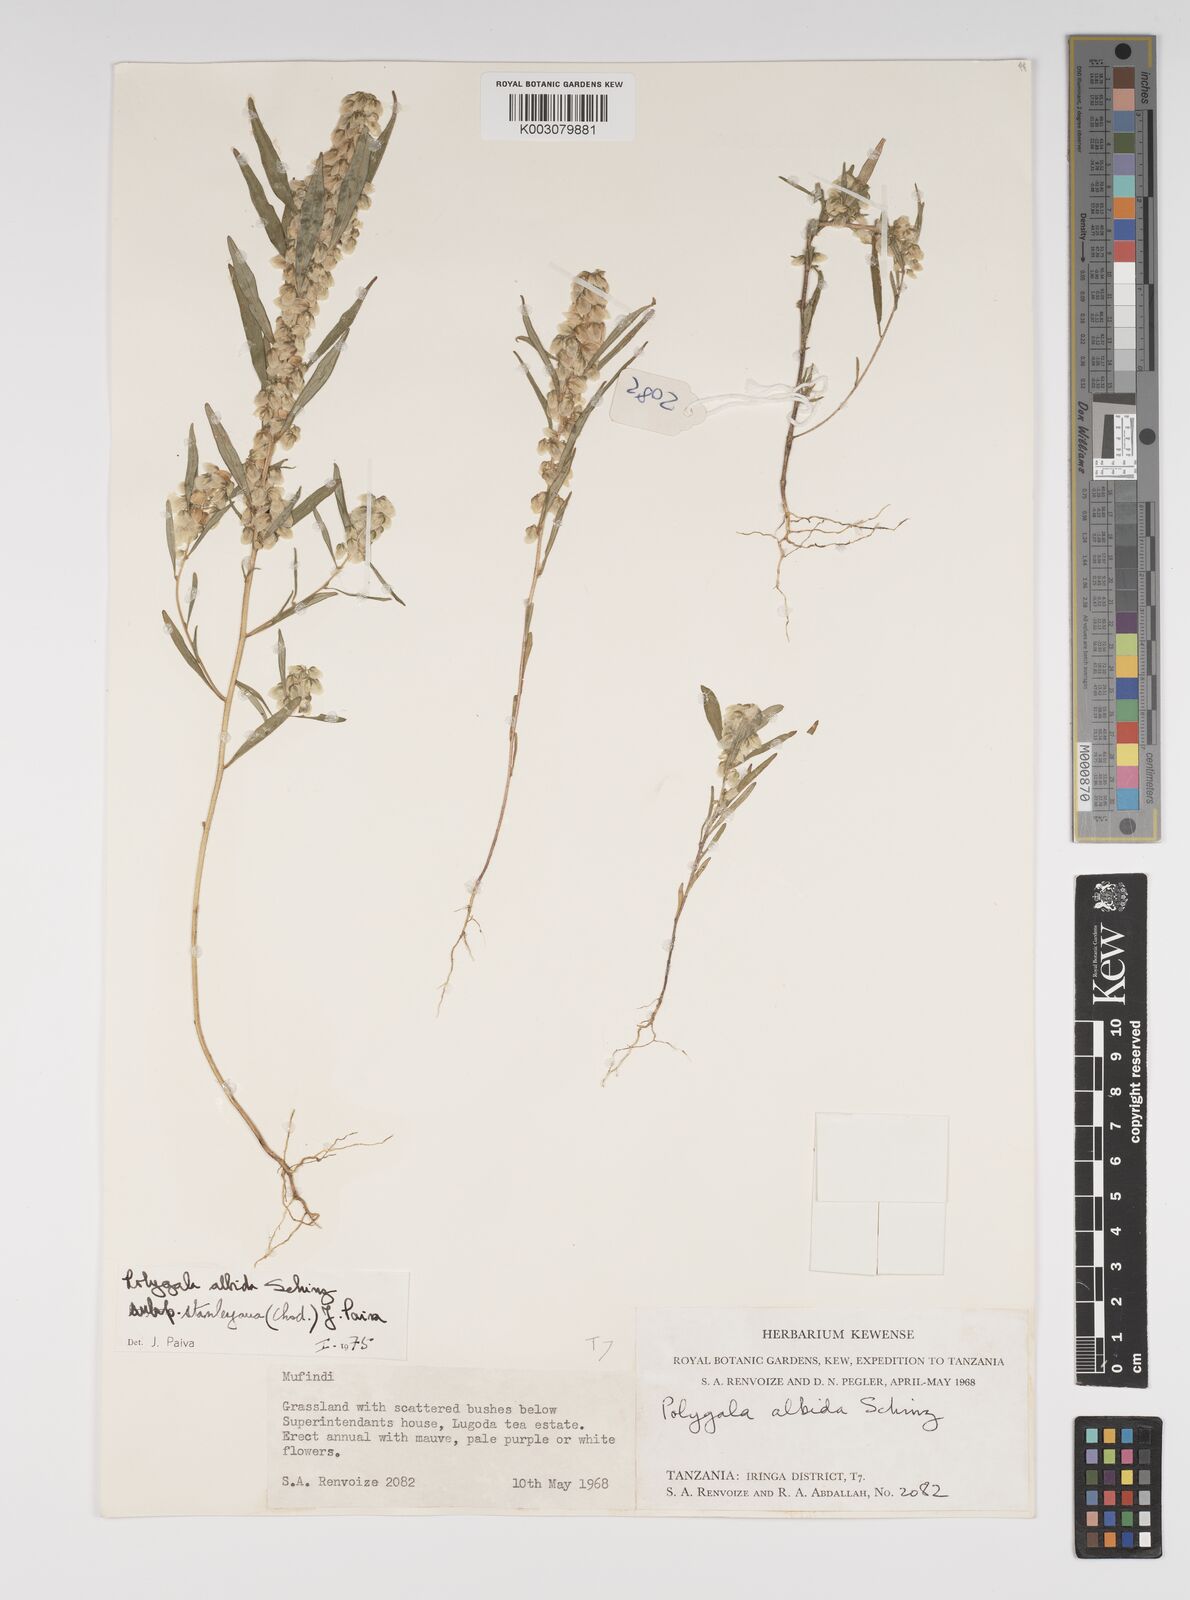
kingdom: Plantae
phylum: Tracheophyta
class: Magnoliopsida
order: Fabales
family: Polygalaceae
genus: Polygala
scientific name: Polygala albida
